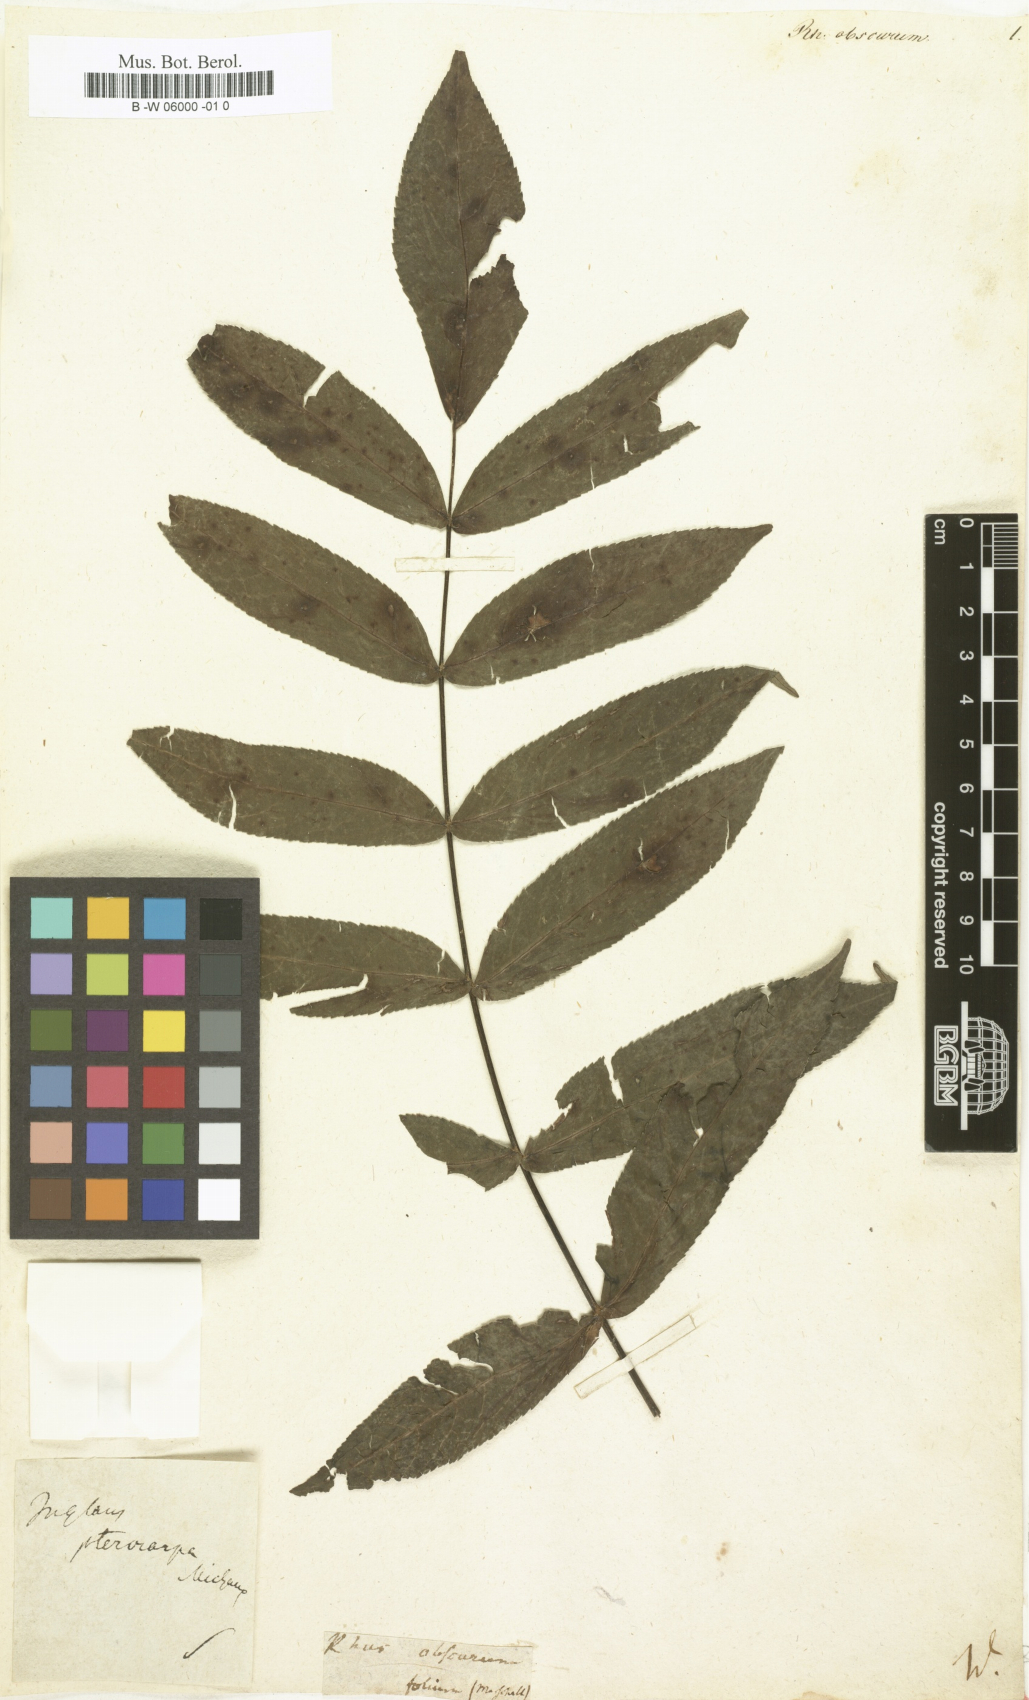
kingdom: Plantae
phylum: Tracheophyta
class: Magnoliopsida
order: Fagales
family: Juglandaceae
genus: Pterocarya
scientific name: Pterocarya fraxinifolia
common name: Caucasian wingnut
